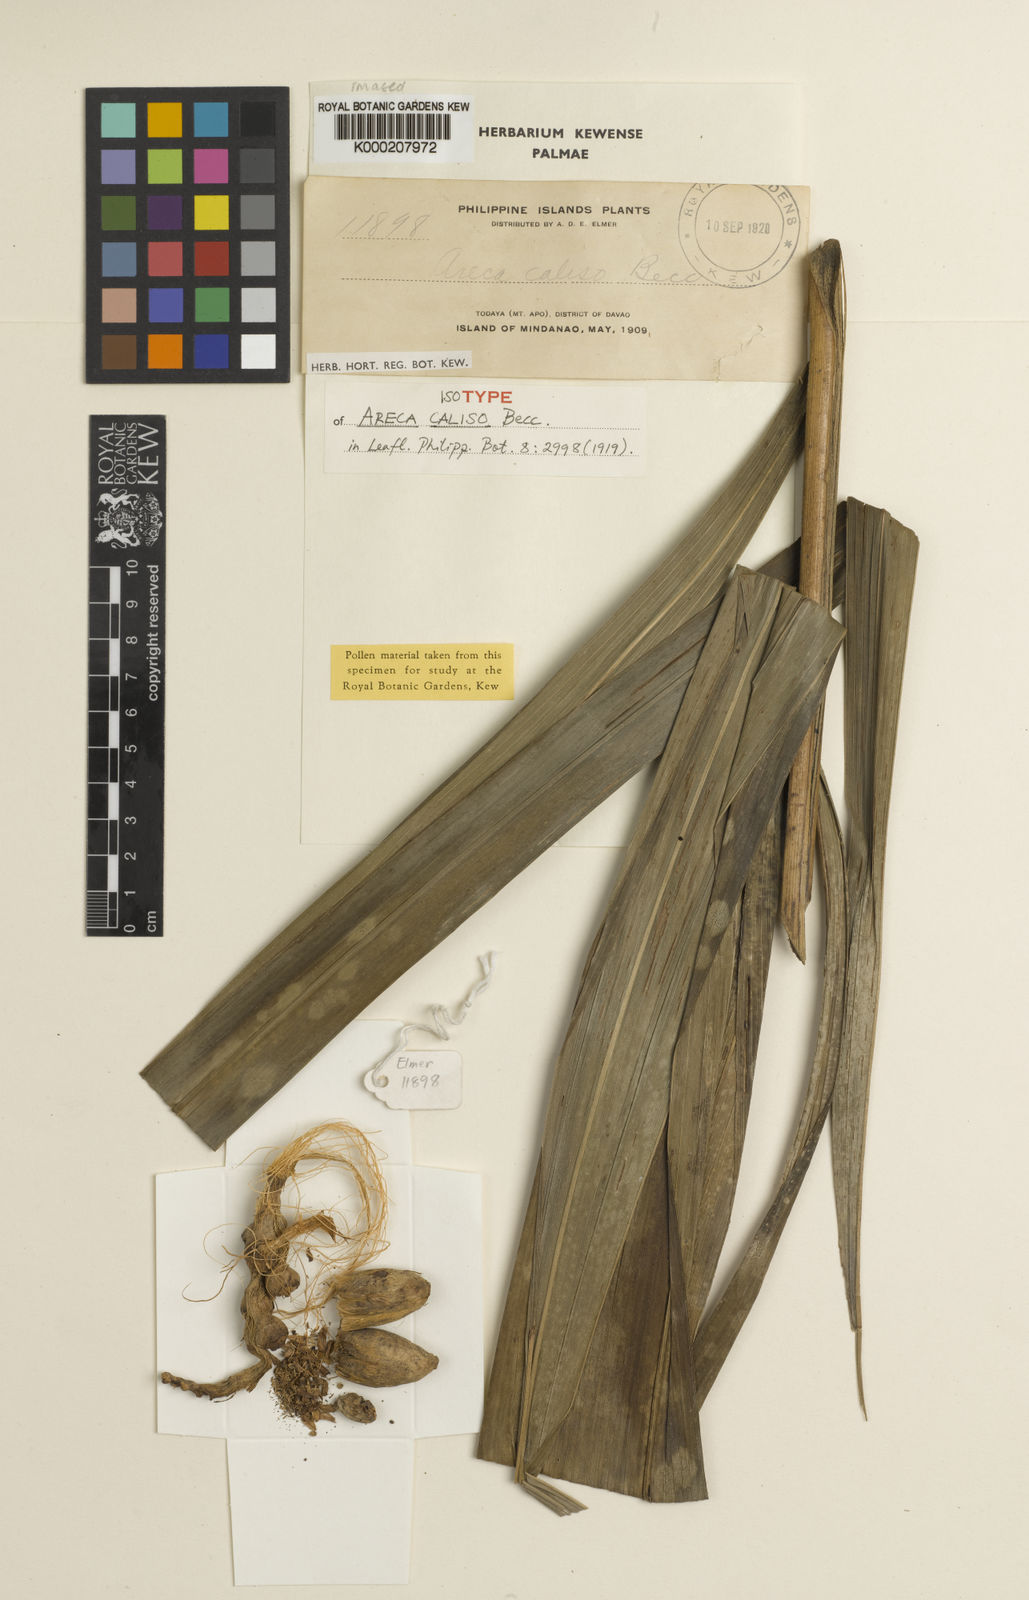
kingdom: Plantae
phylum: Tracheophyta
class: Liliopsida
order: Arecales
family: Arecaceae
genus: Areca
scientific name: Areca caliso
